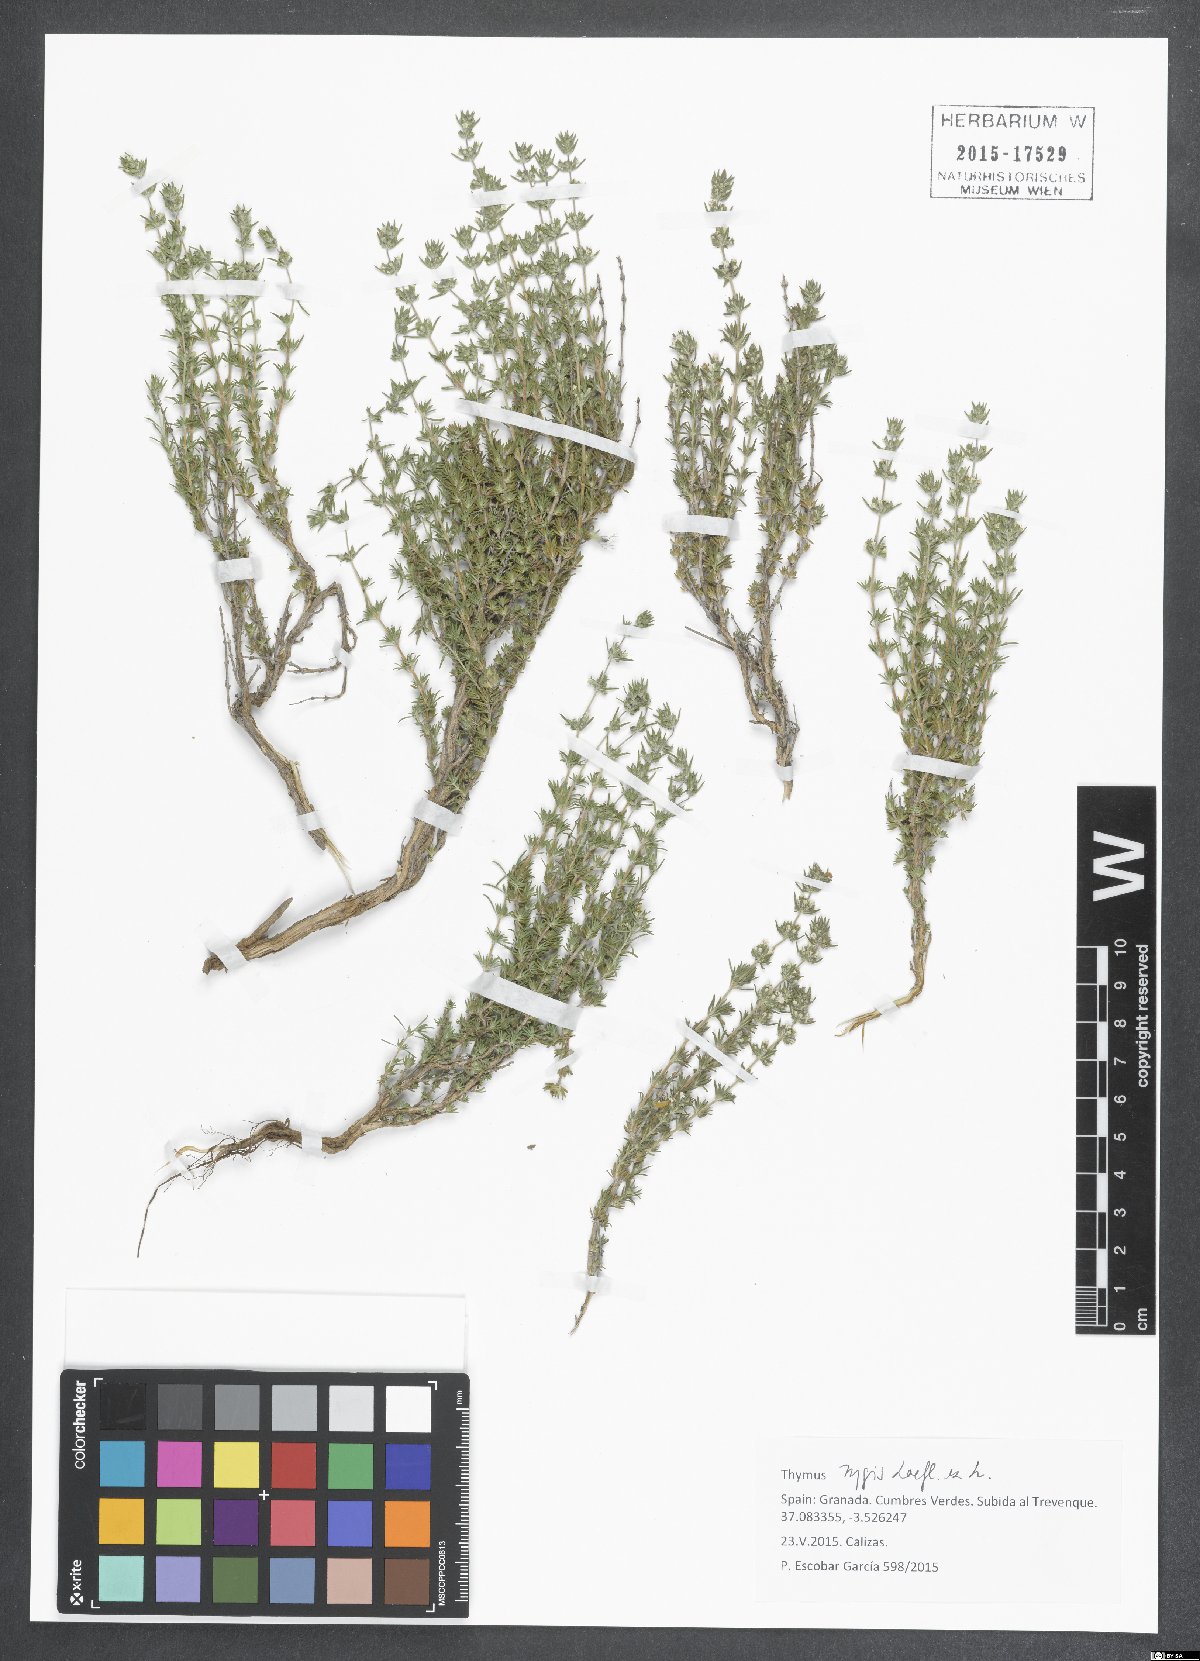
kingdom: Plantae
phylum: Tracheophyta
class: Magnoliopsida
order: Lamiales
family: Lamiaceae
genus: Thymus
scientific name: Thymus zygis
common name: White thyme
